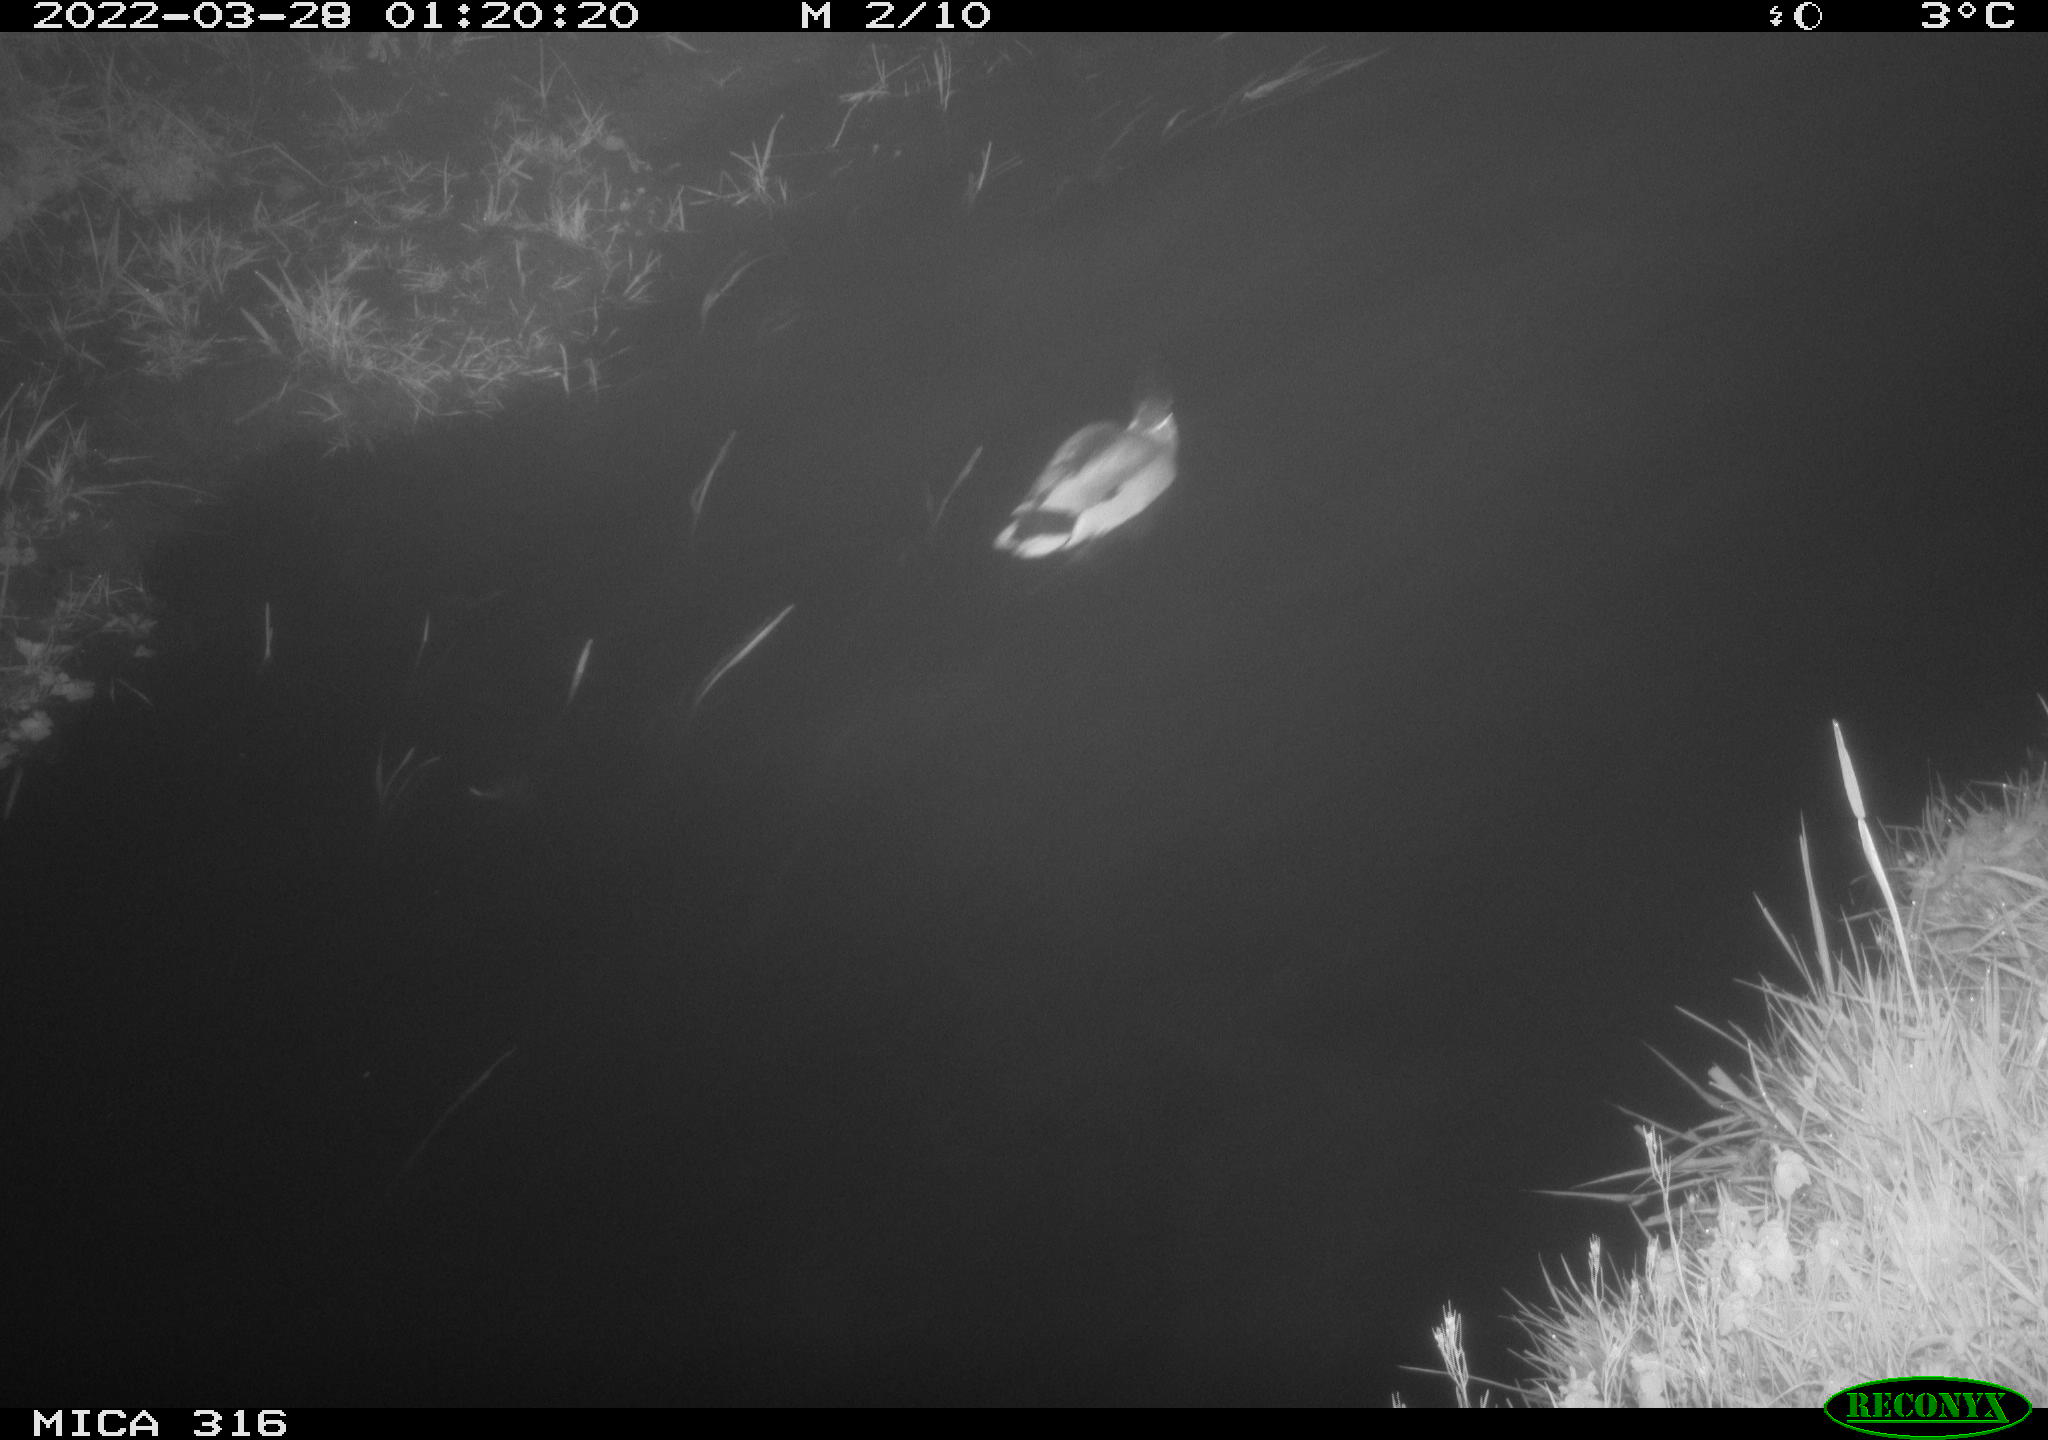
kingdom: Animalia
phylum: Chordata
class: Aves
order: Anseriformes
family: Anatidae
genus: Anas
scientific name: Anas platyrhynchos
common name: Mallard
